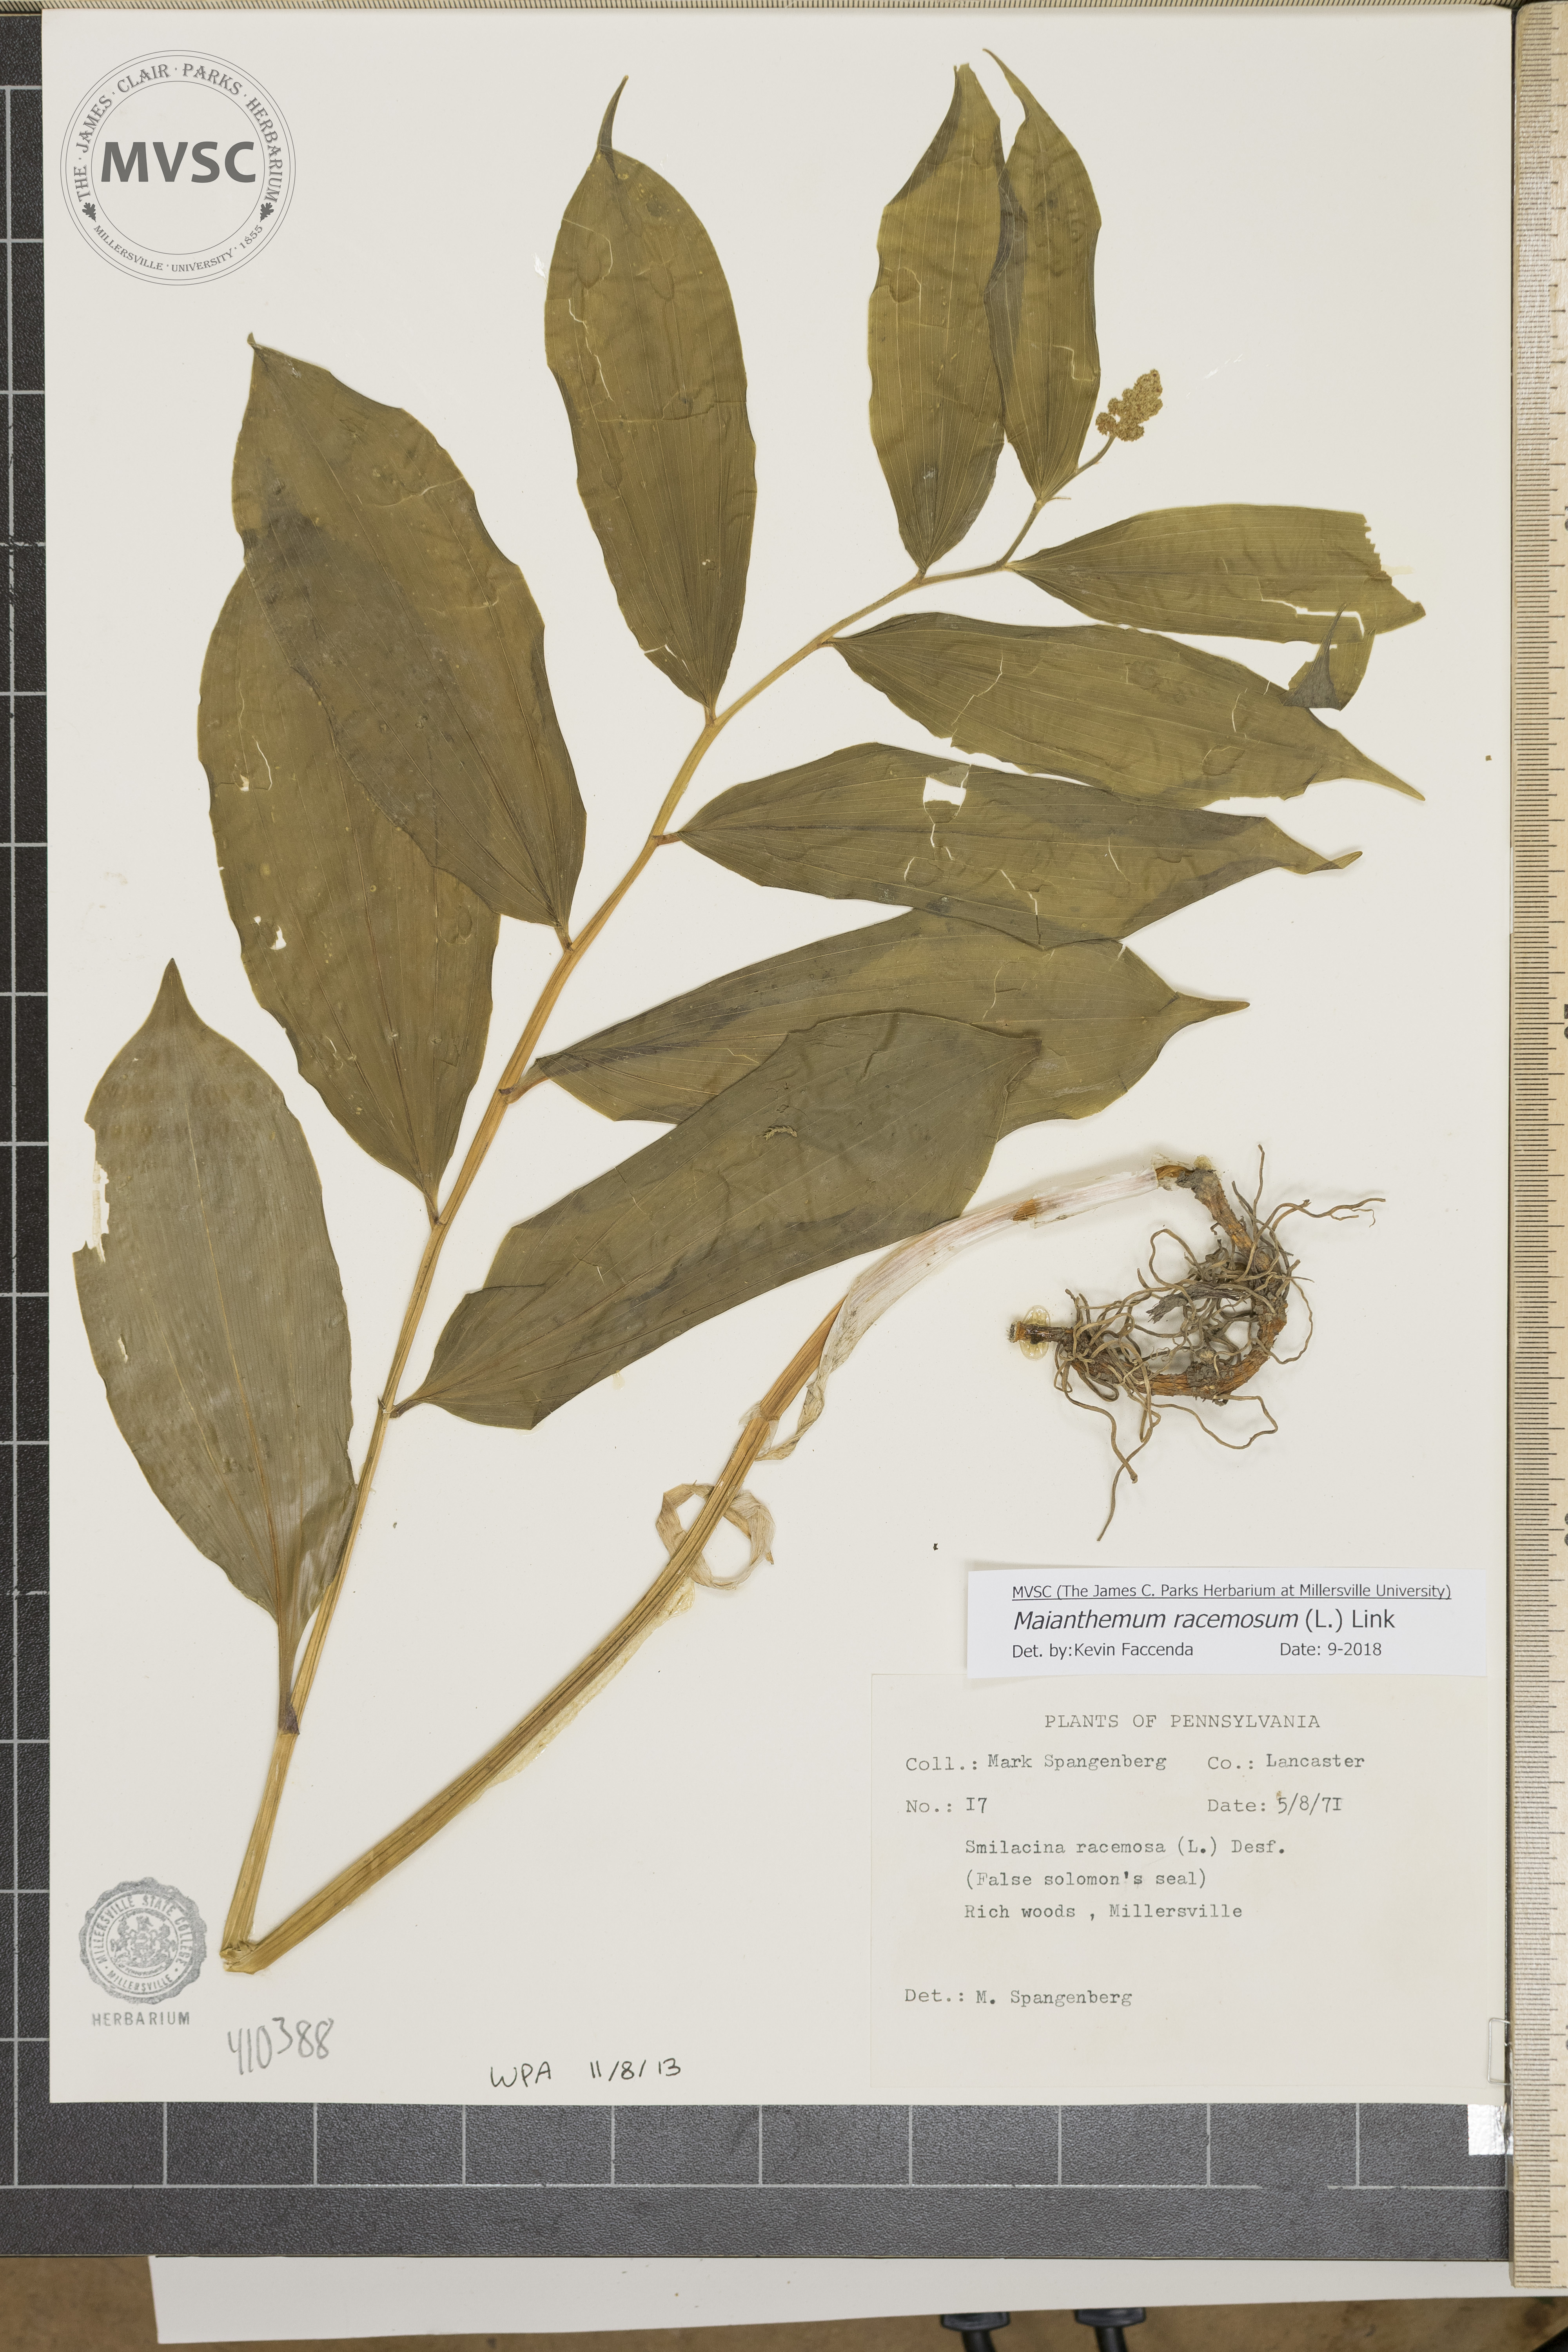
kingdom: Plantae
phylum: Tracheophyta
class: Liliopsida
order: Asparagales
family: Asparagaceae
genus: Maianthemum
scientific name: Maianthemum racemosum
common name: False spikenard
